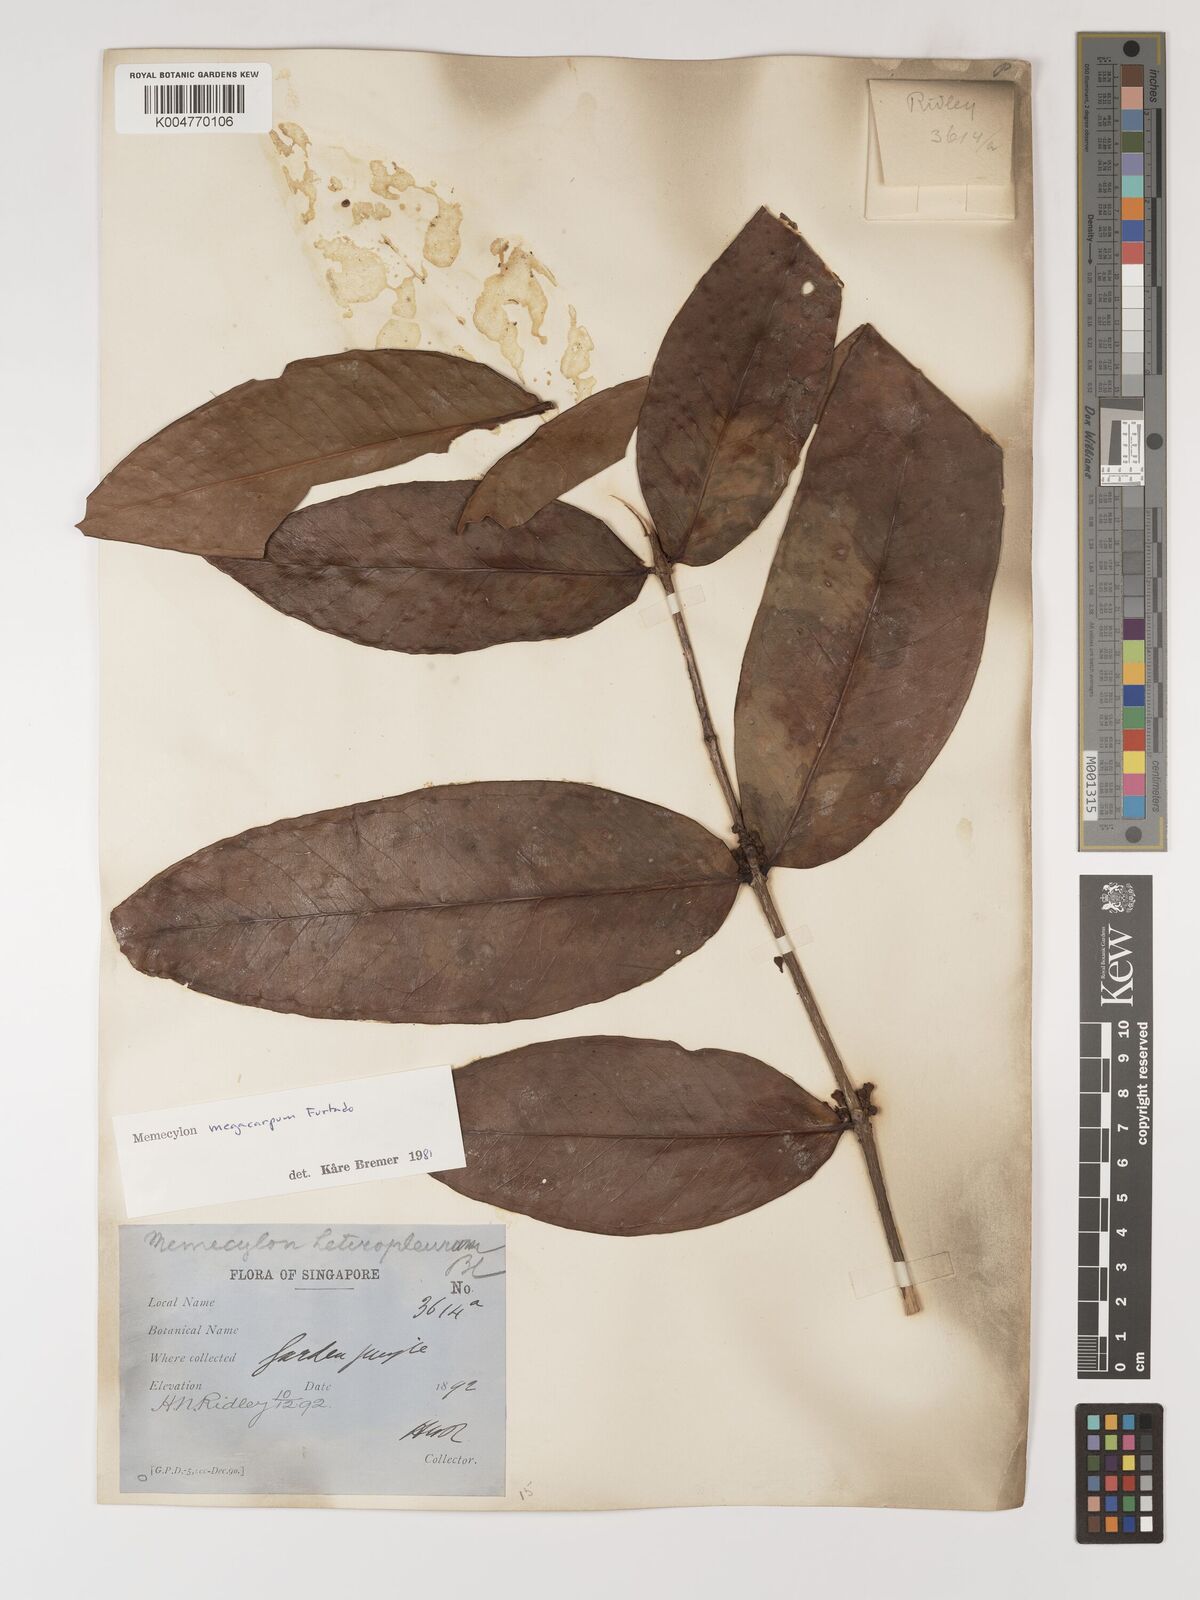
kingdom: Plantae
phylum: Tracheophyta
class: Magnoliopsida
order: Myrtales
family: Melastomataceae
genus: Memecylon
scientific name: Memecylon megacarpum
